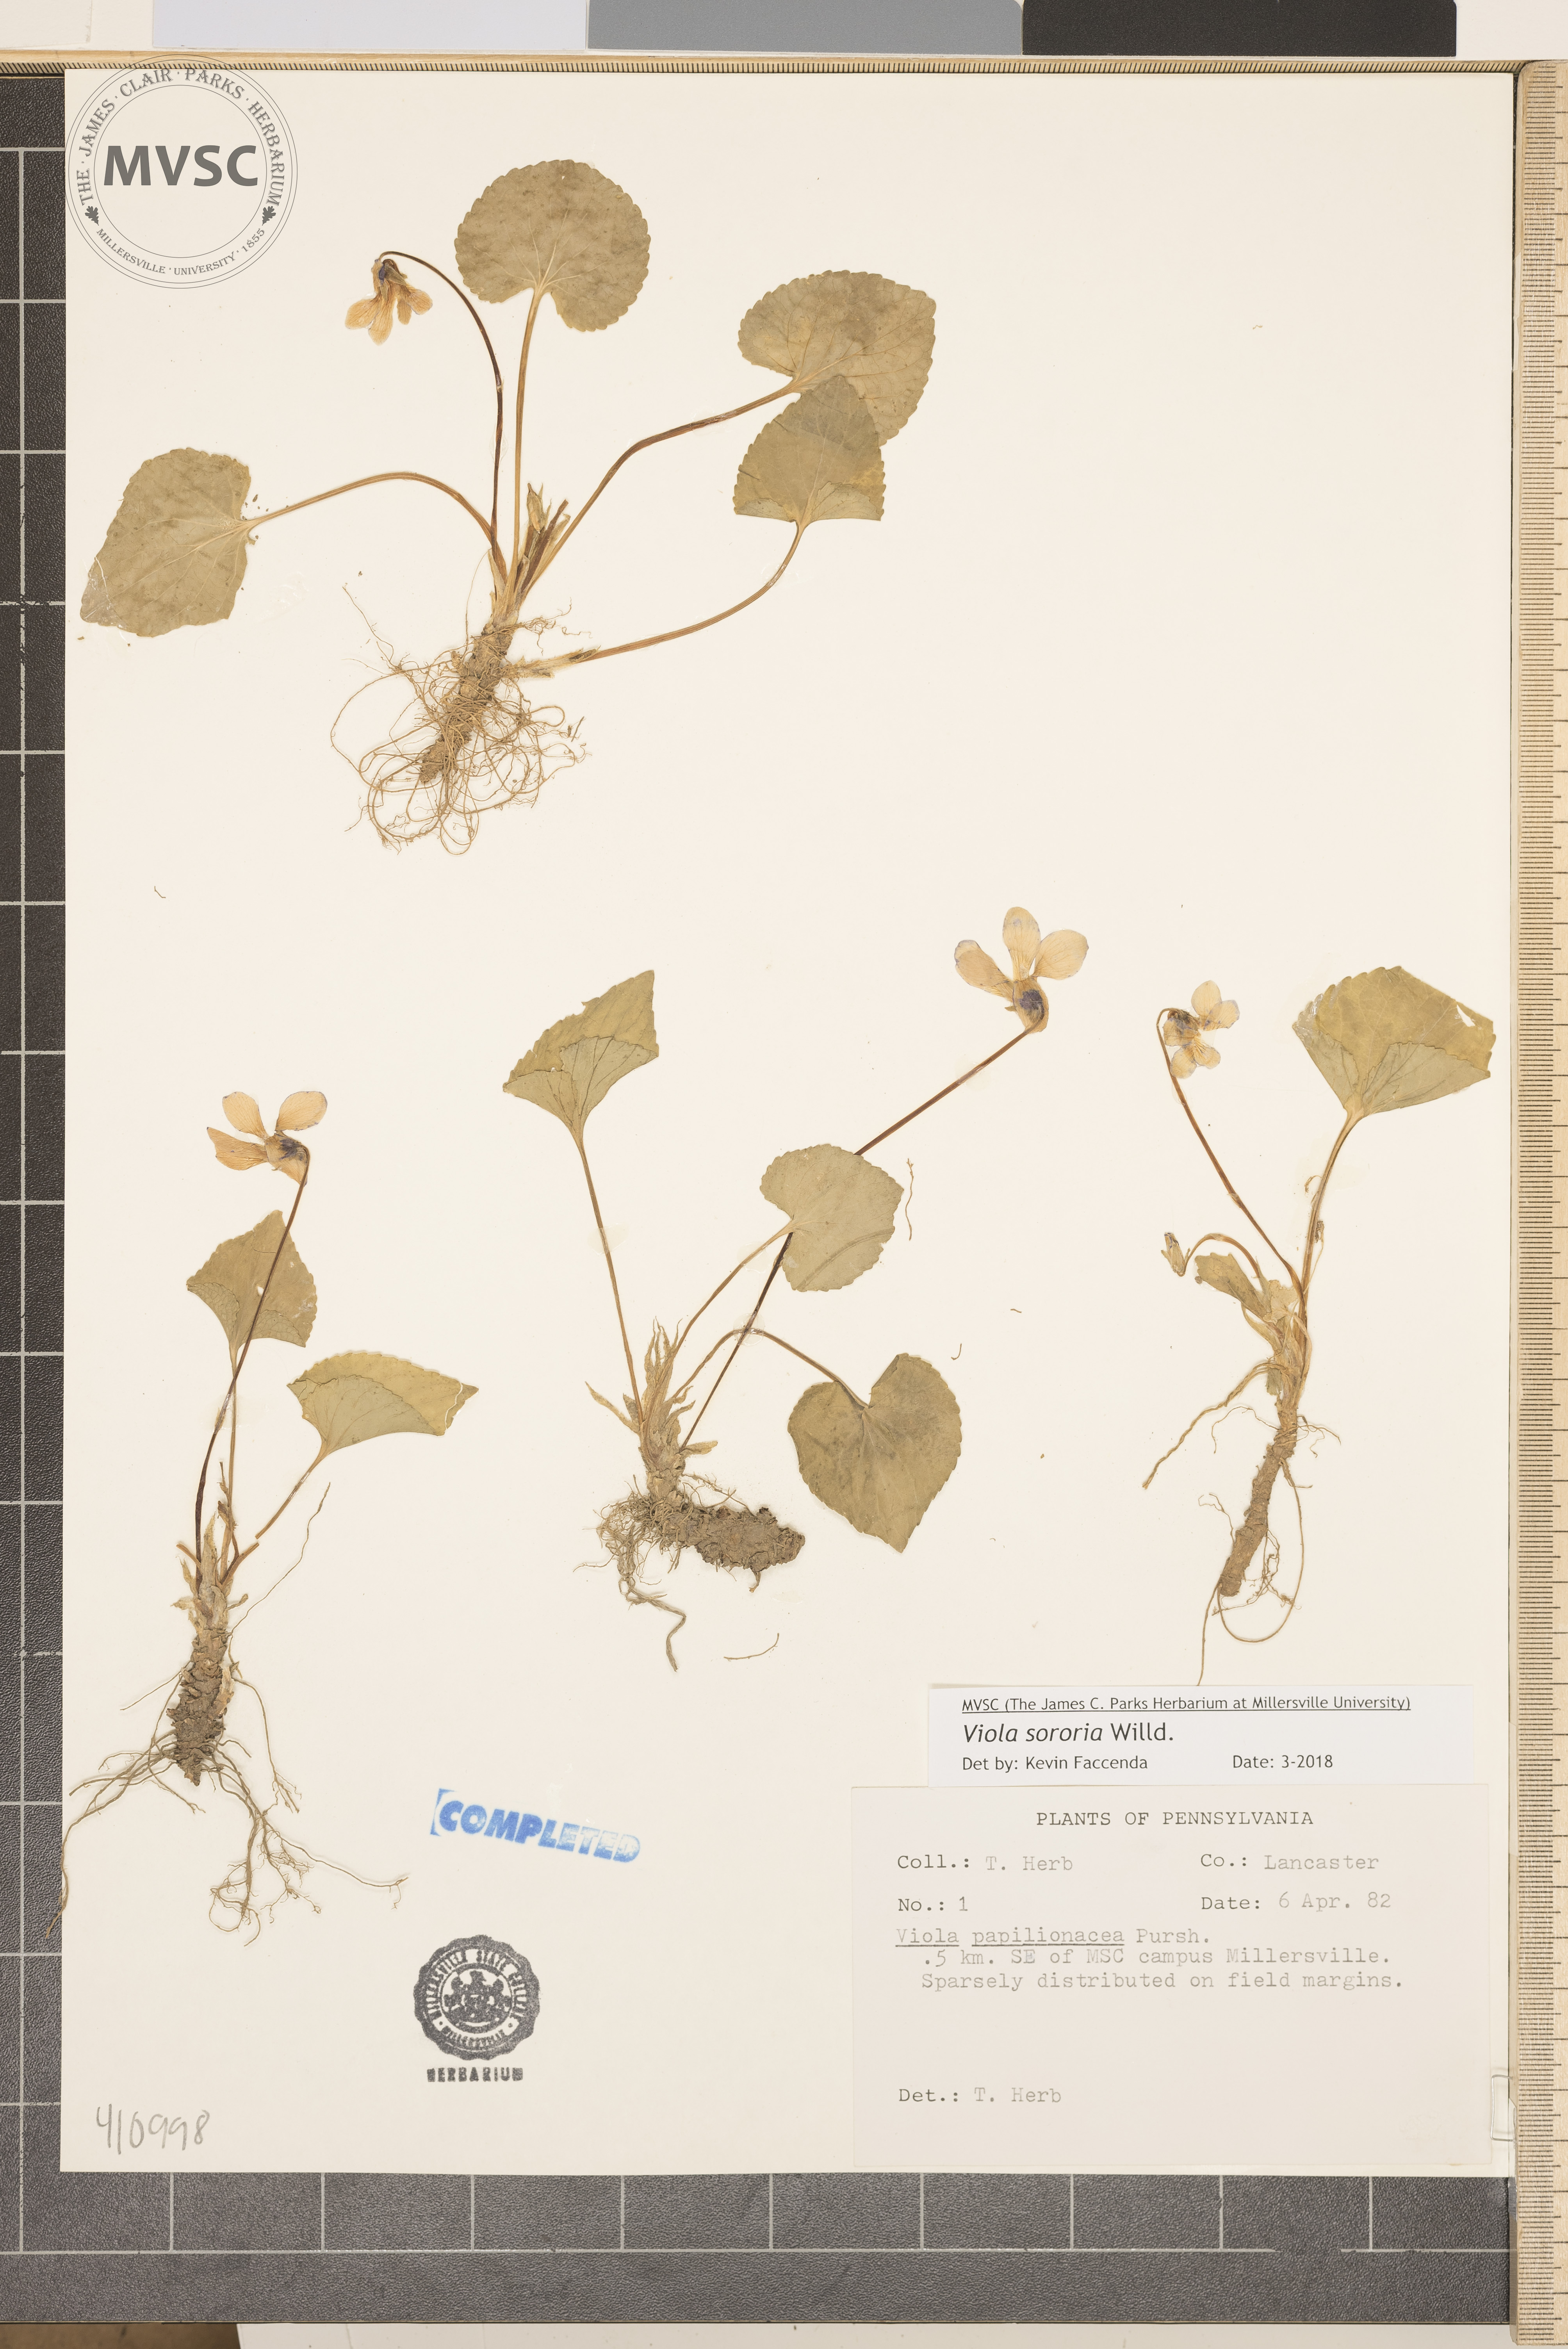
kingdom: Plantae
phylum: Tracheophyta
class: Magnoliopsida
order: Malpighiales
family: Violaceae
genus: Viola
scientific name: Viola sororia
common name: Dooryard violet
